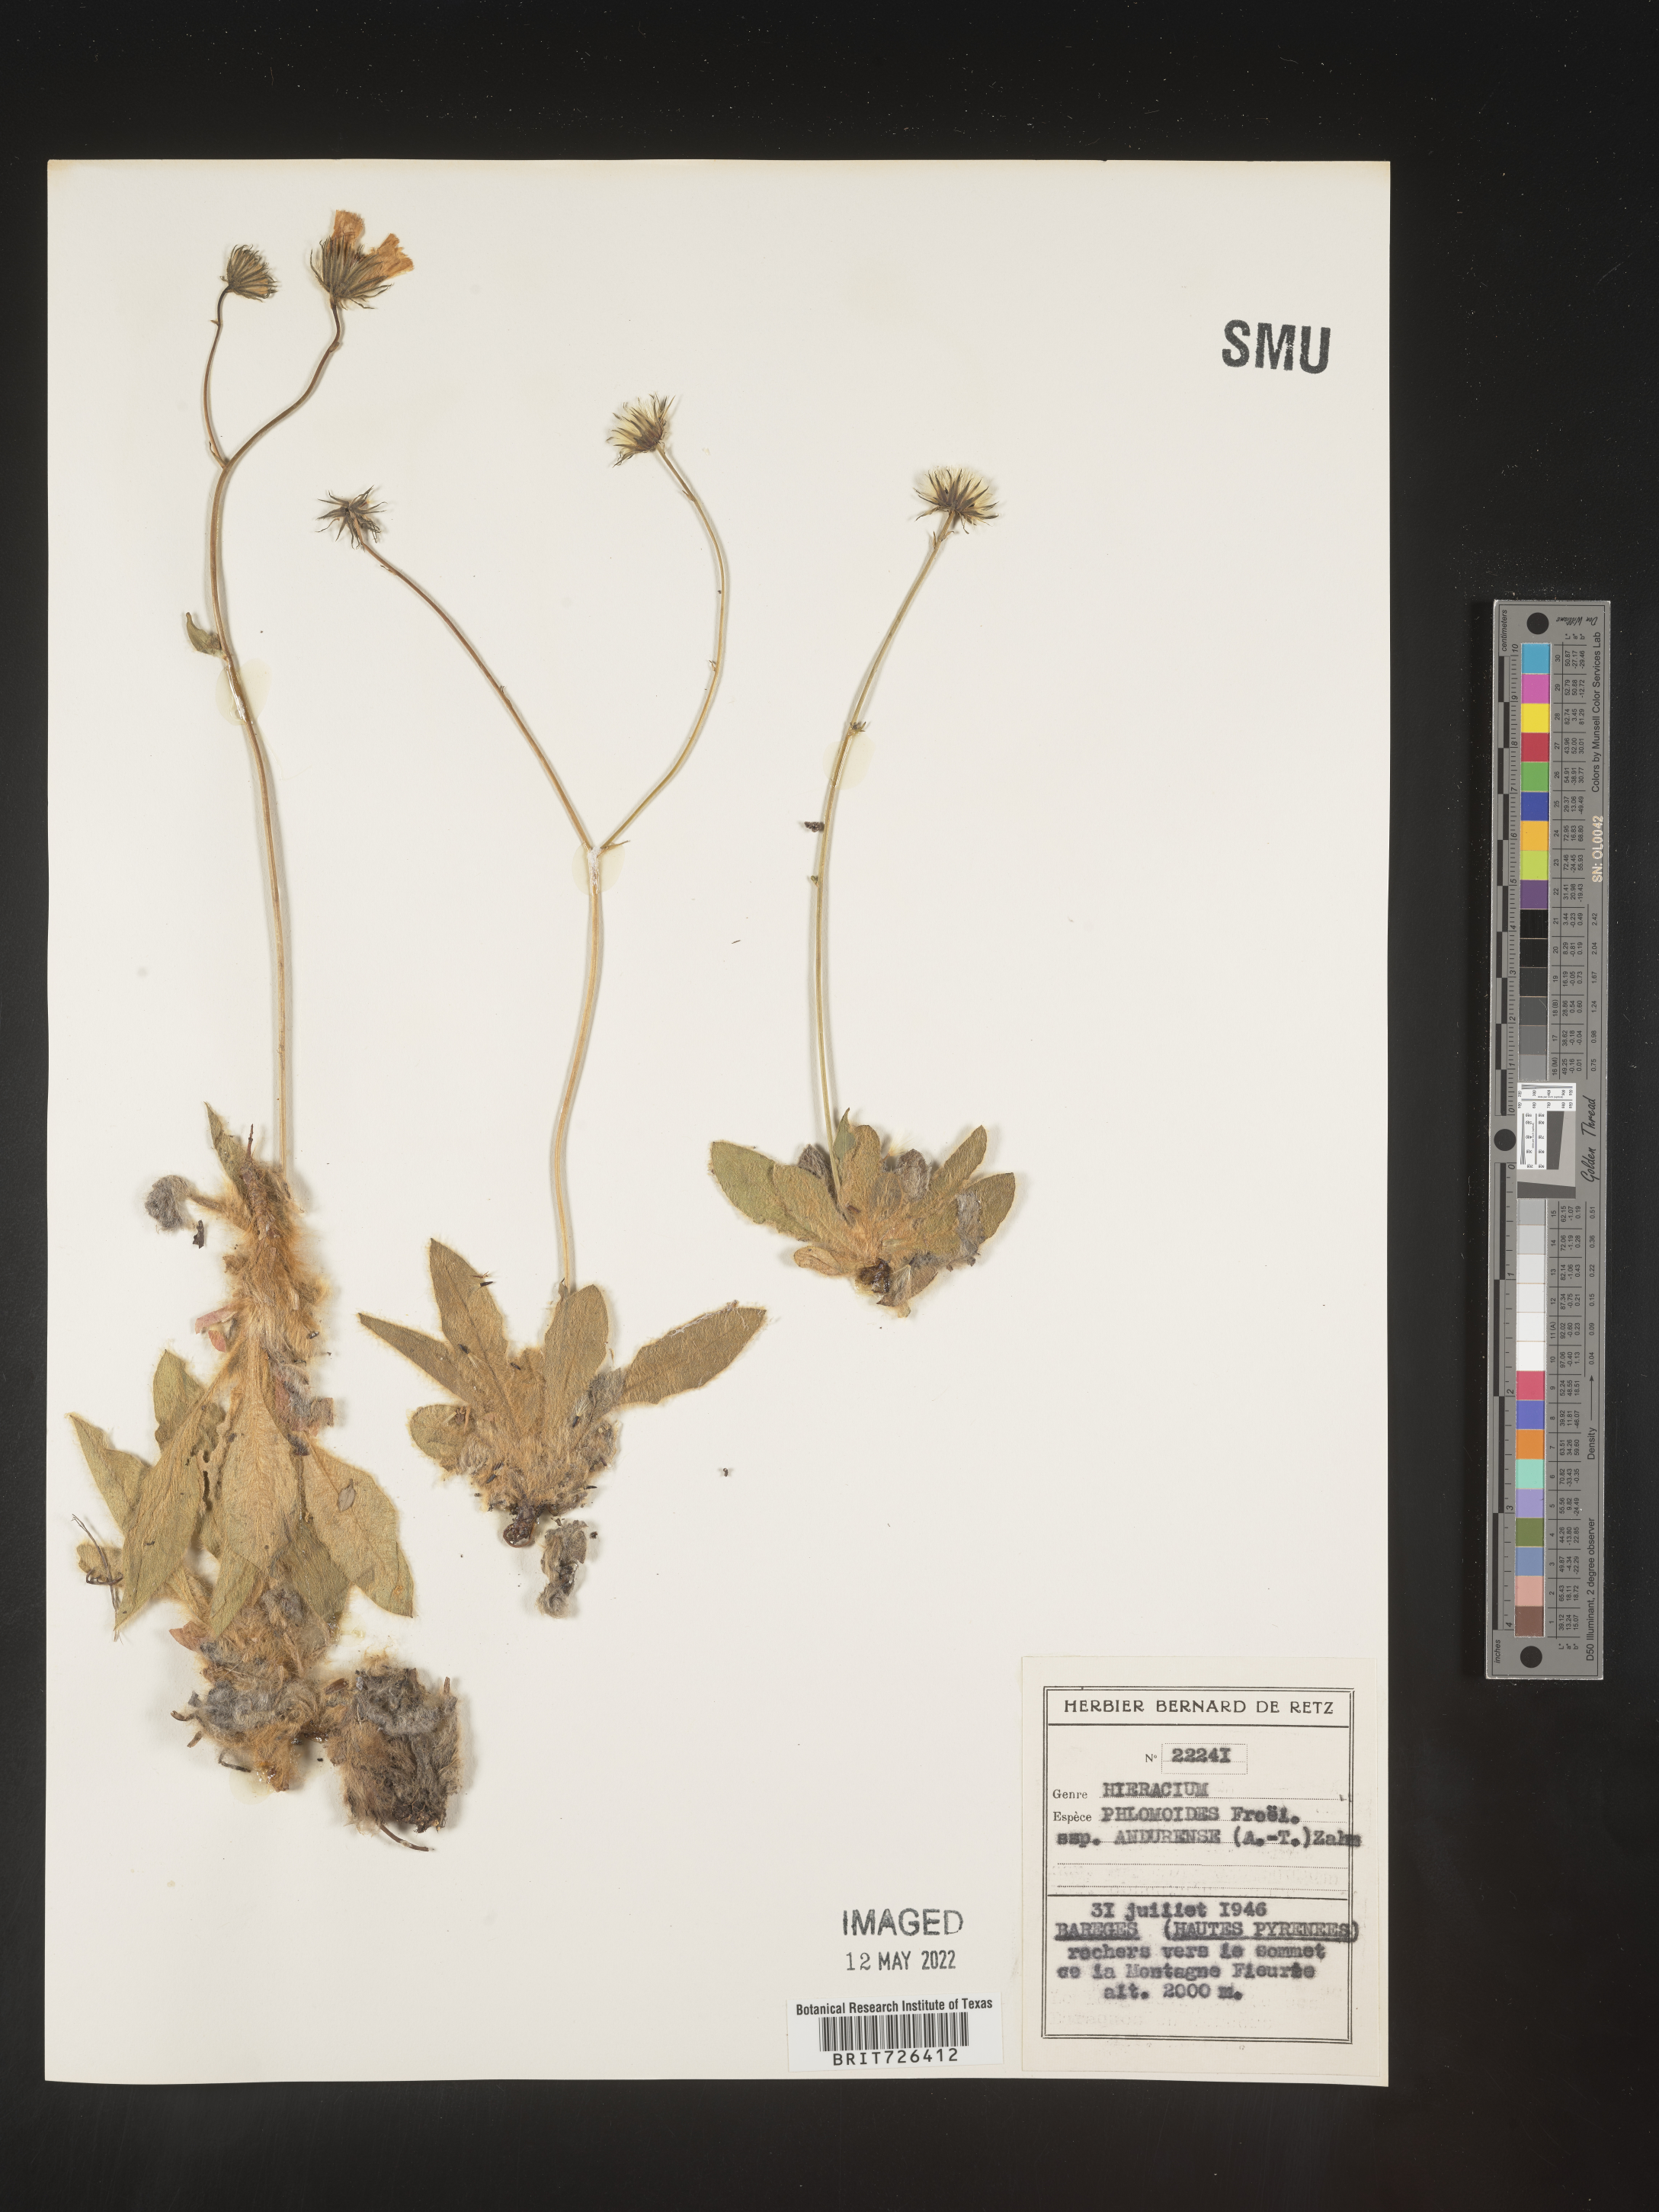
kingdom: Plantae
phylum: Tracheophyta
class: Magnoliopsida
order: Asterales
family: Asteraceae
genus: Hieracium
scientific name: Hieracium
